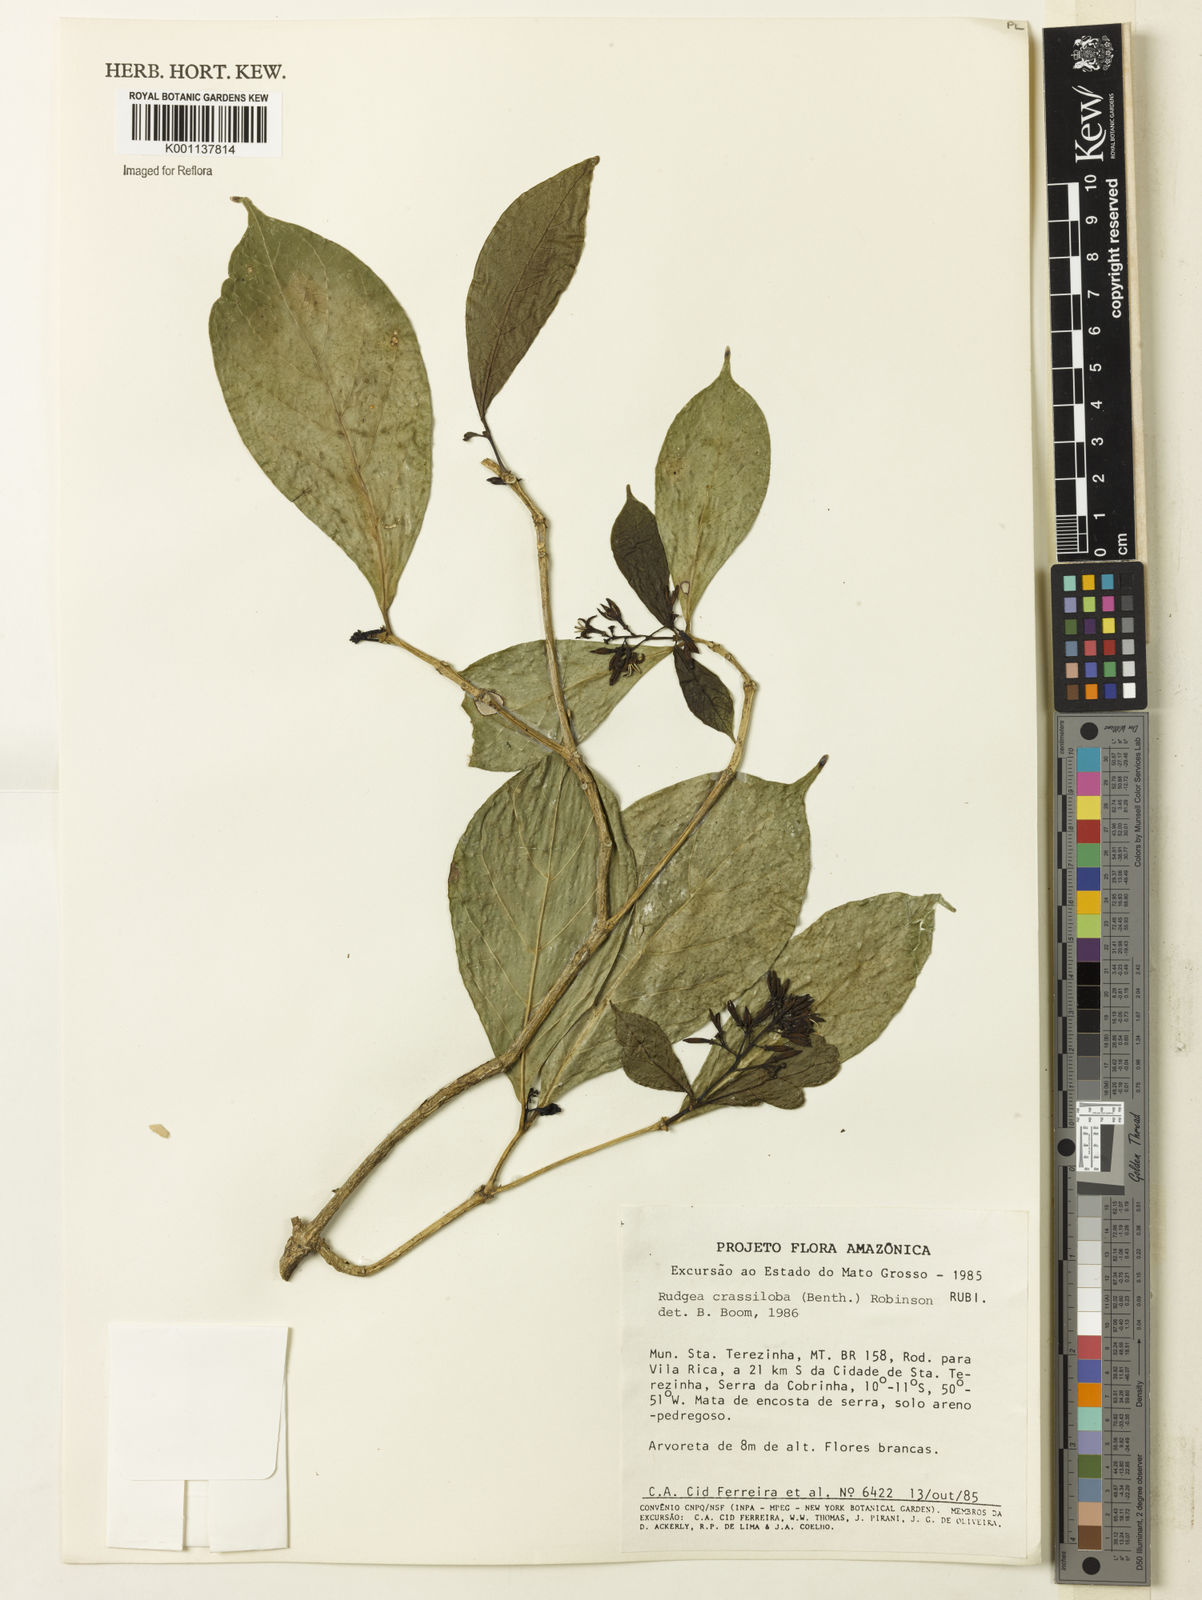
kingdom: Plantae
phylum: Tracheophyta
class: Magnoliopsida
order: Gentianales
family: Rubiaceae
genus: Coussarea
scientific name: Coussarea
